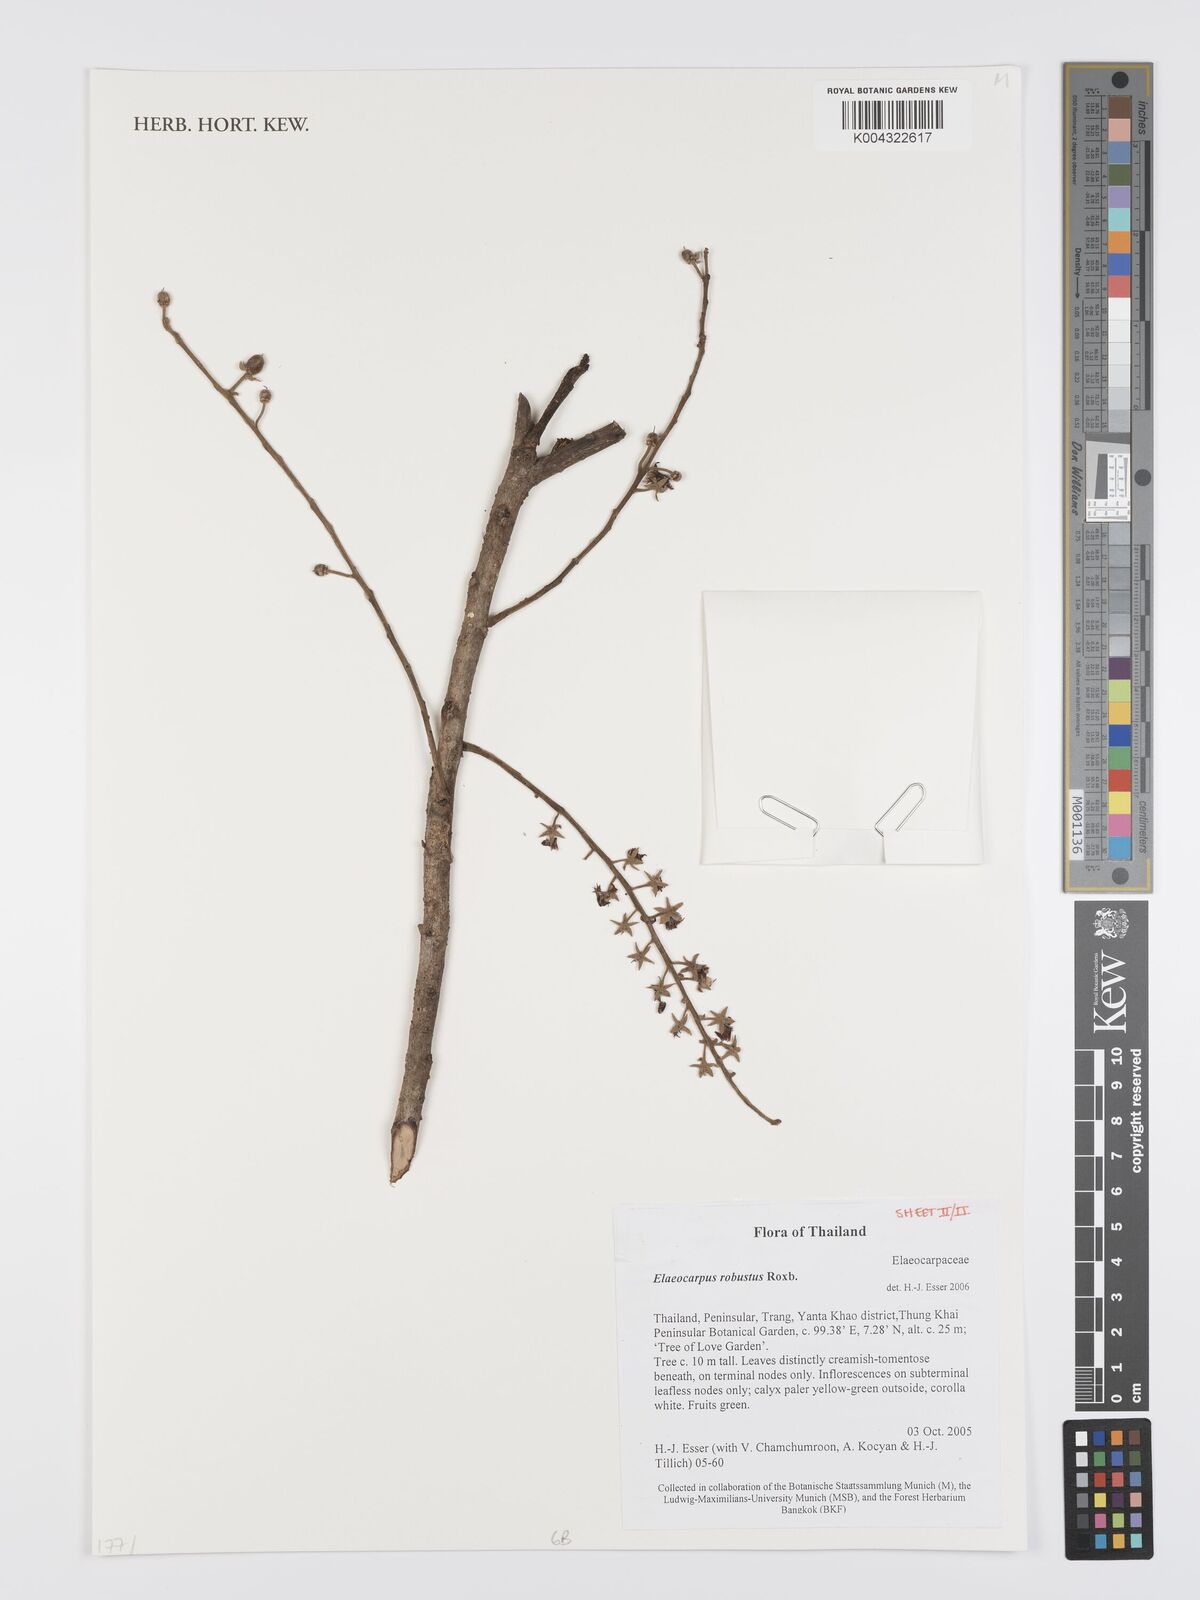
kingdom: Plantae
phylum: Tracheophyta
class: Magnoliopsida
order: Oxalidales
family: Elaeocarpaceae
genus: Elaeocarpus
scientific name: Elaeocarpus robustus
